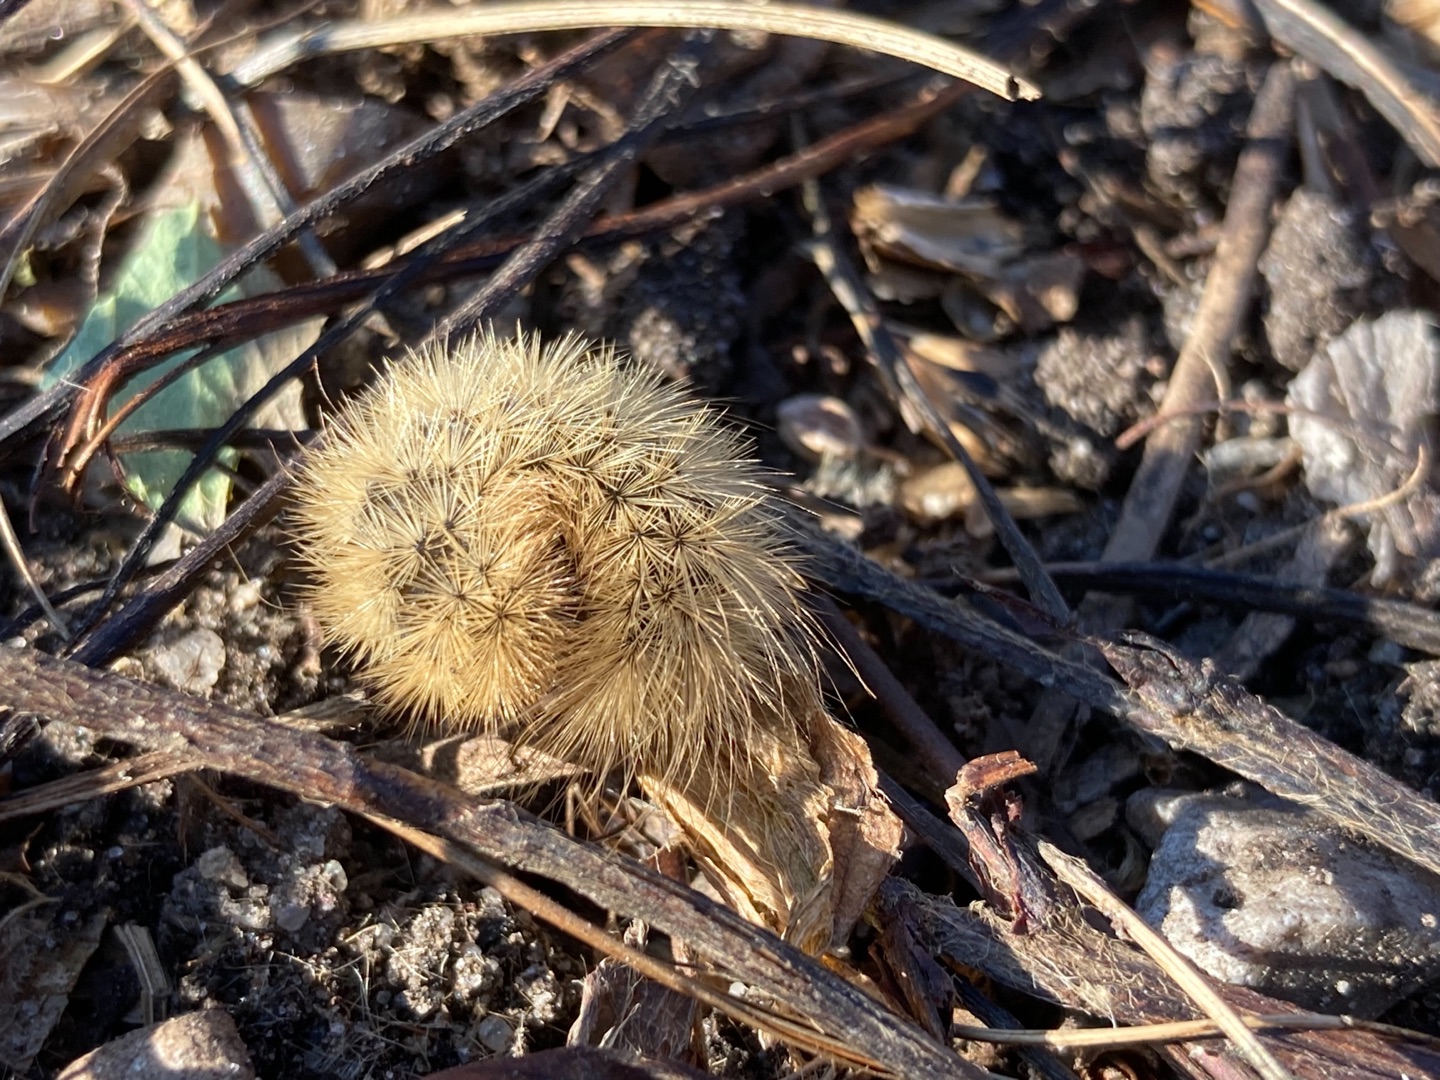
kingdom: Animalia
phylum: Arthropoda
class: Insecta
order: Lepidoptera
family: Erebidae
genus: Phragmatobia
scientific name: Phragmatobia fuliginosa
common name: Kanelbjørn
